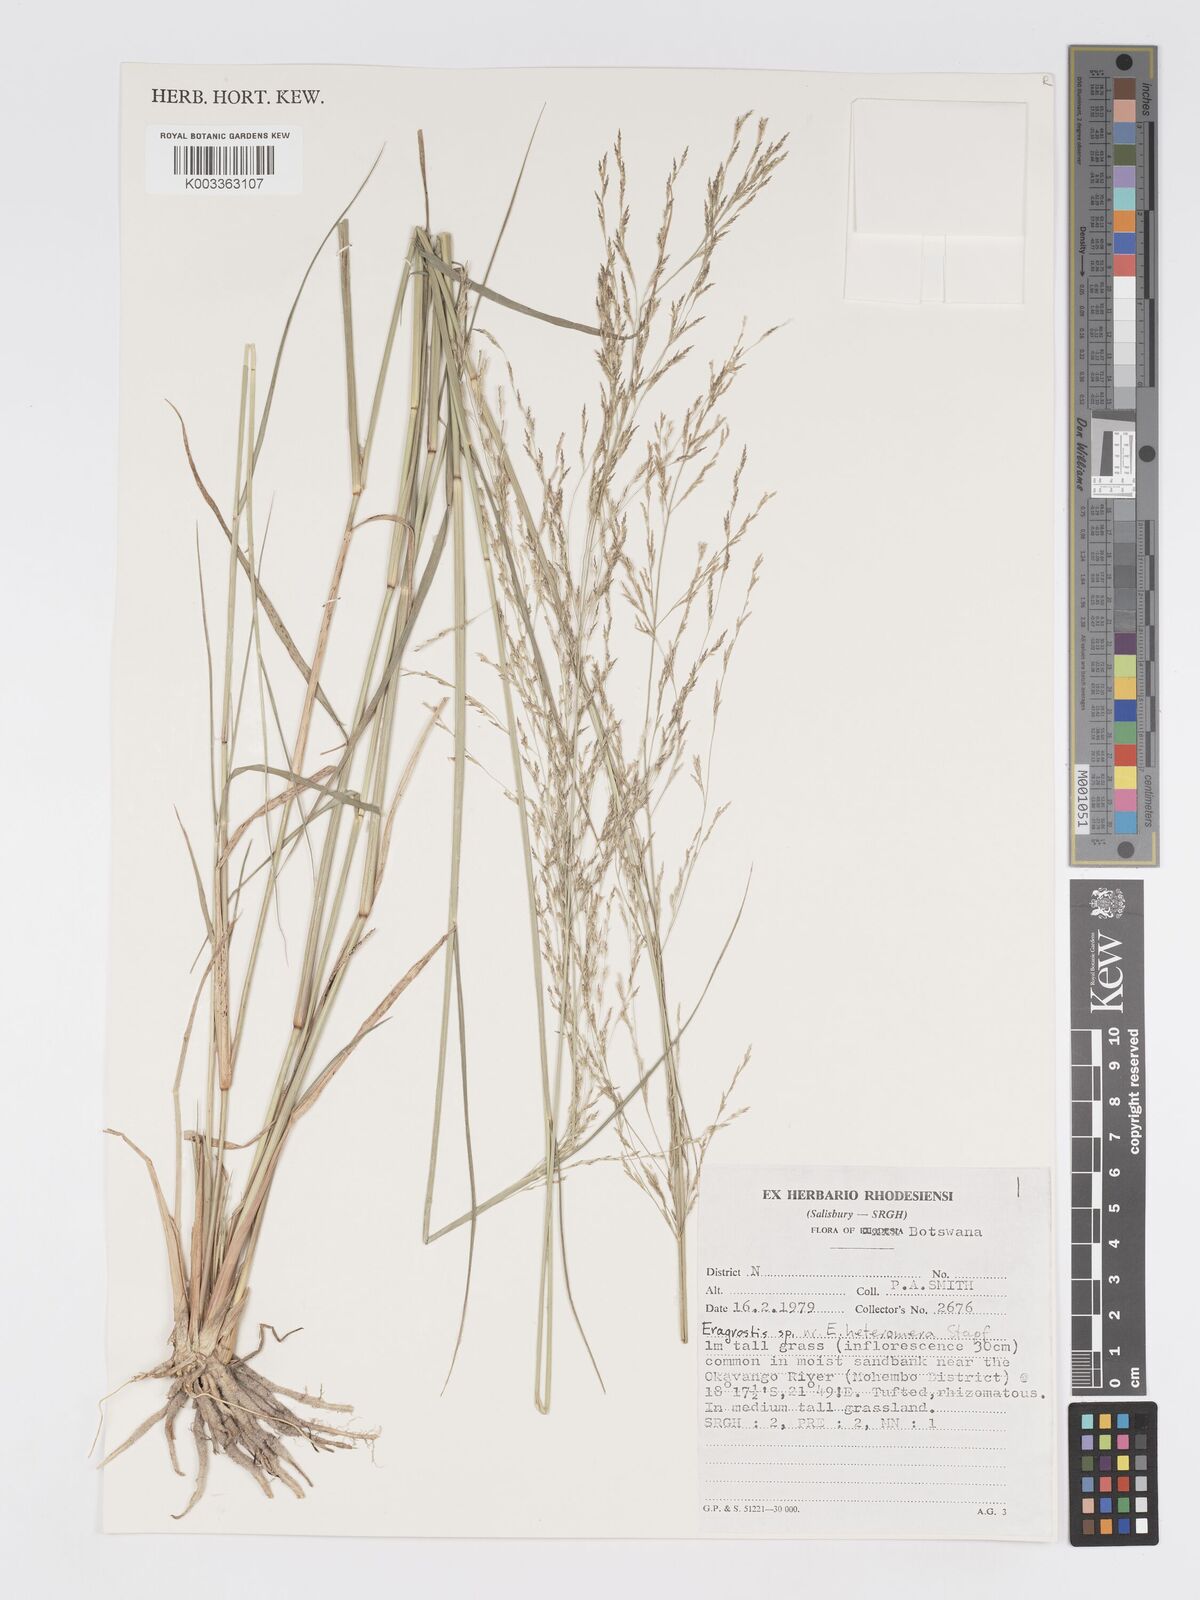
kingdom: Plantae
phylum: Tracheophyta
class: Liliopsida
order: Poales
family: Poaceae
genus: Eragrostis
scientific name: Eragrostis cylindriflora
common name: Cylinderflower lovegrass
